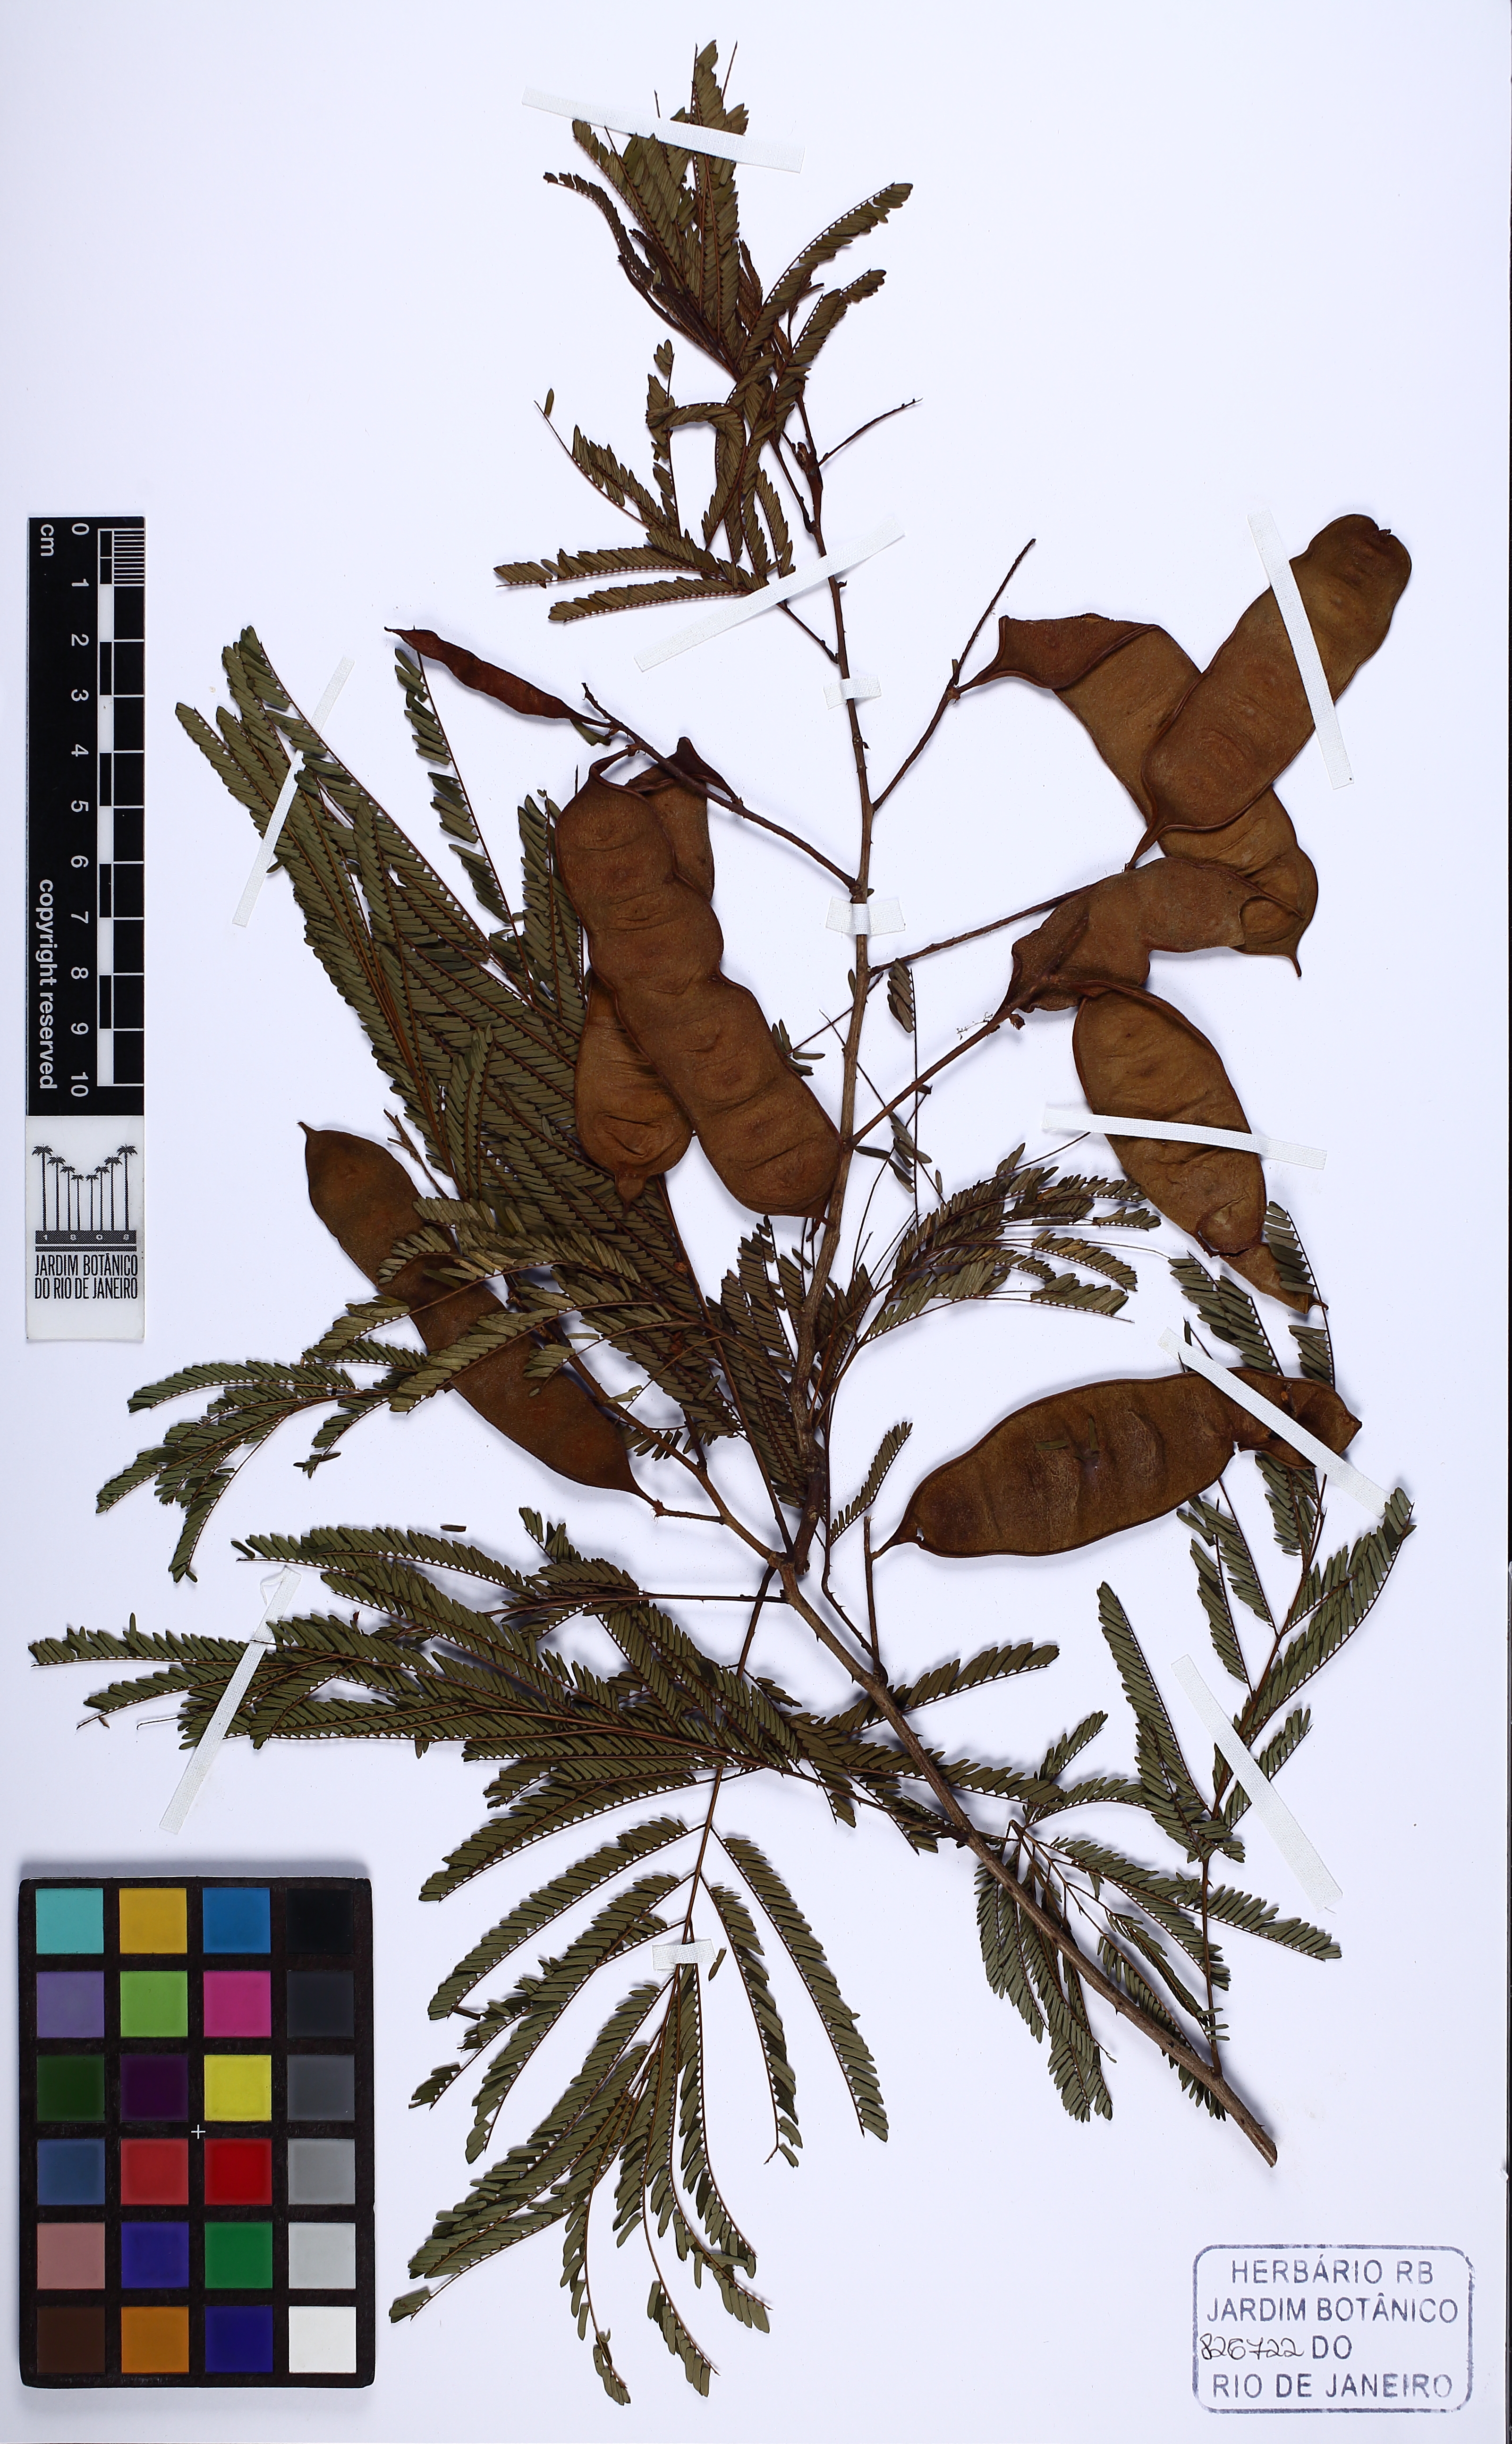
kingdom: Plantae
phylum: Tracheophyta
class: Magnoliopsida
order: Fabales
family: Fabaceae
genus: Senegalia
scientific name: Senegalia velutina
